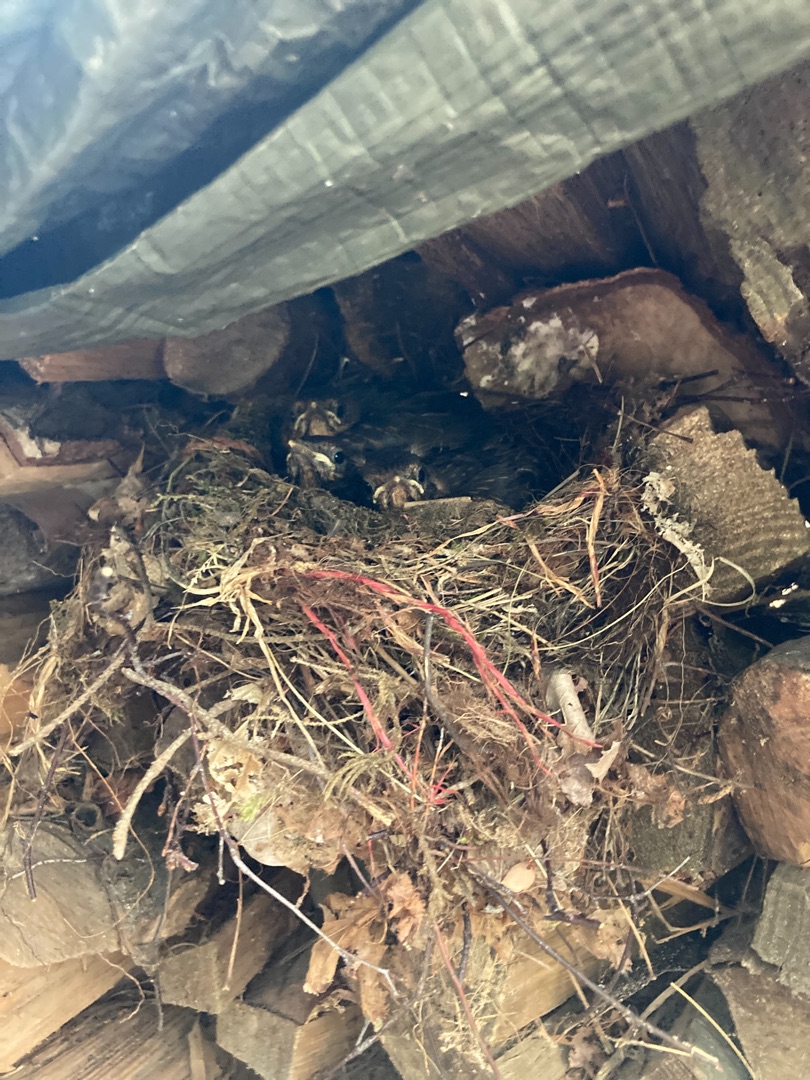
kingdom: Animalia
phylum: Chordata
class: Aves
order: Passeriformes
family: Turdidae
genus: Turdus
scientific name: Turdus merula
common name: Solsort
